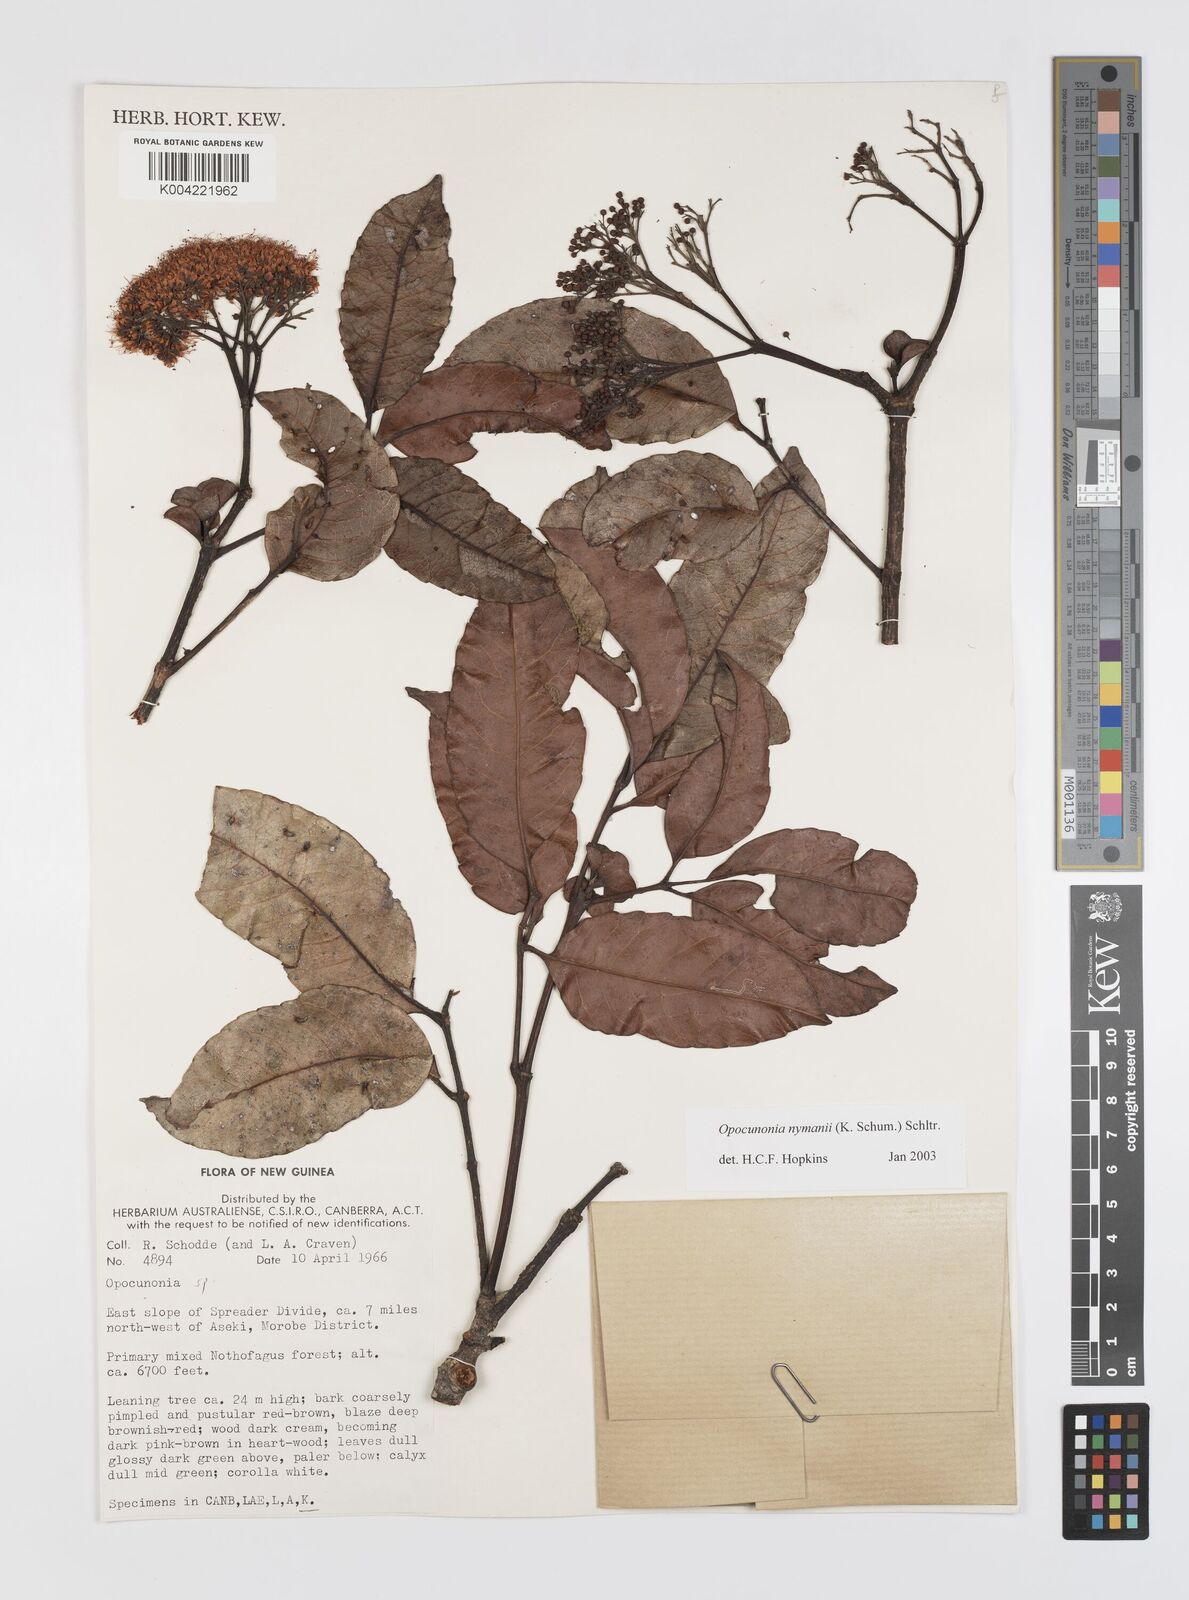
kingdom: Plantae
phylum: Tracheophyta
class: Magnoliopsida
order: Oxalidales
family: Cunoniaceae
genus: Opocunonia
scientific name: Opocunonia nymanii
